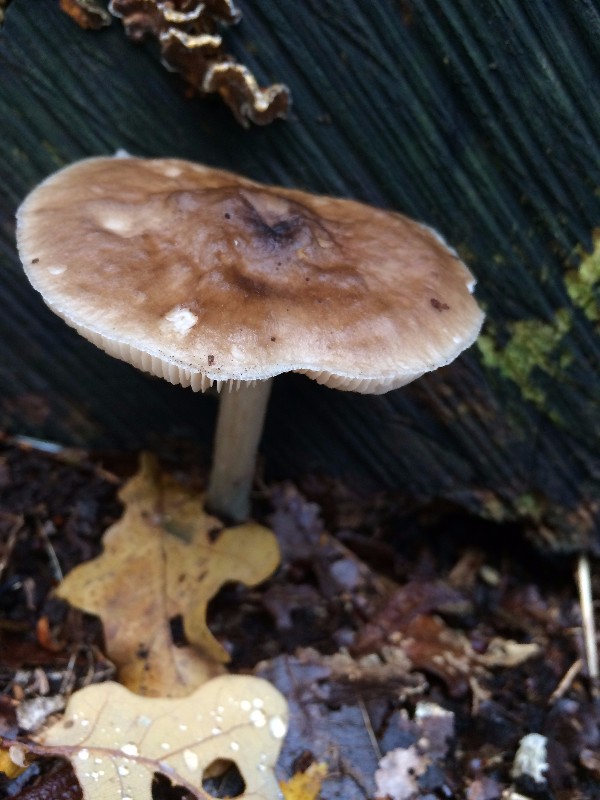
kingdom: Fungi
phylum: Basidiomycota
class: Agaricomycetes
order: Agaricales
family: Pluteaceae
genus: Pluteus
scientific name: Pluteus cervinus
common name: sodfarvet skærmhat
